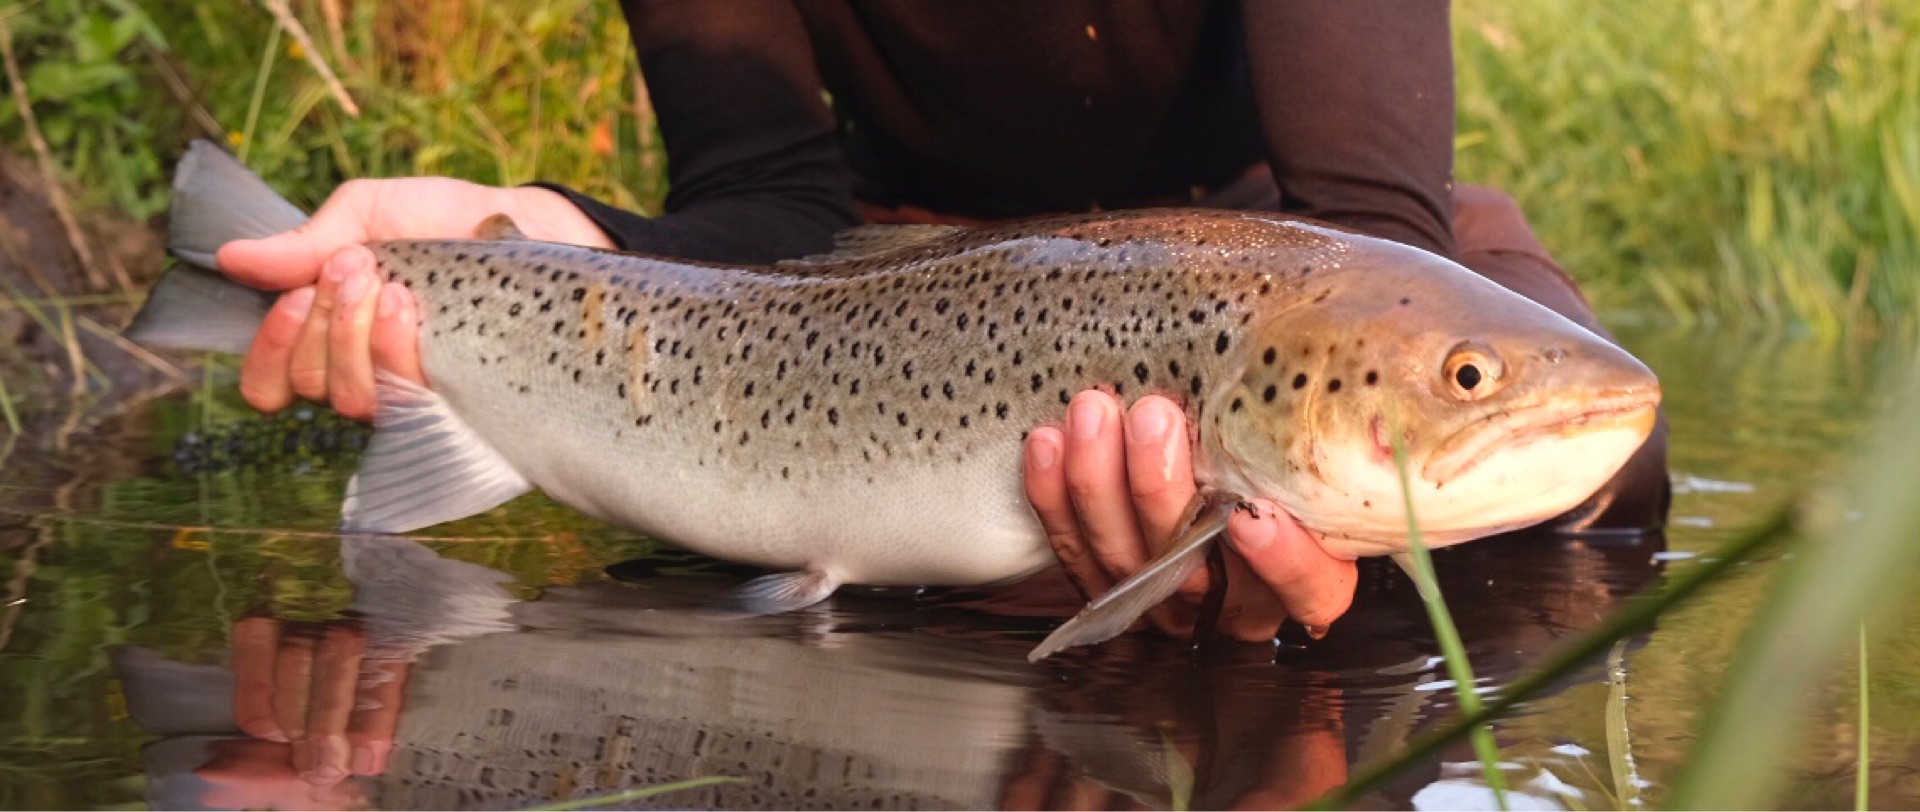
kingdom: Animalia
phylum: Chordata
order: Salmoniformes
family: Salmonidae
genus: Salmo
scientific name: Salmo trutta
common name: Ørred
